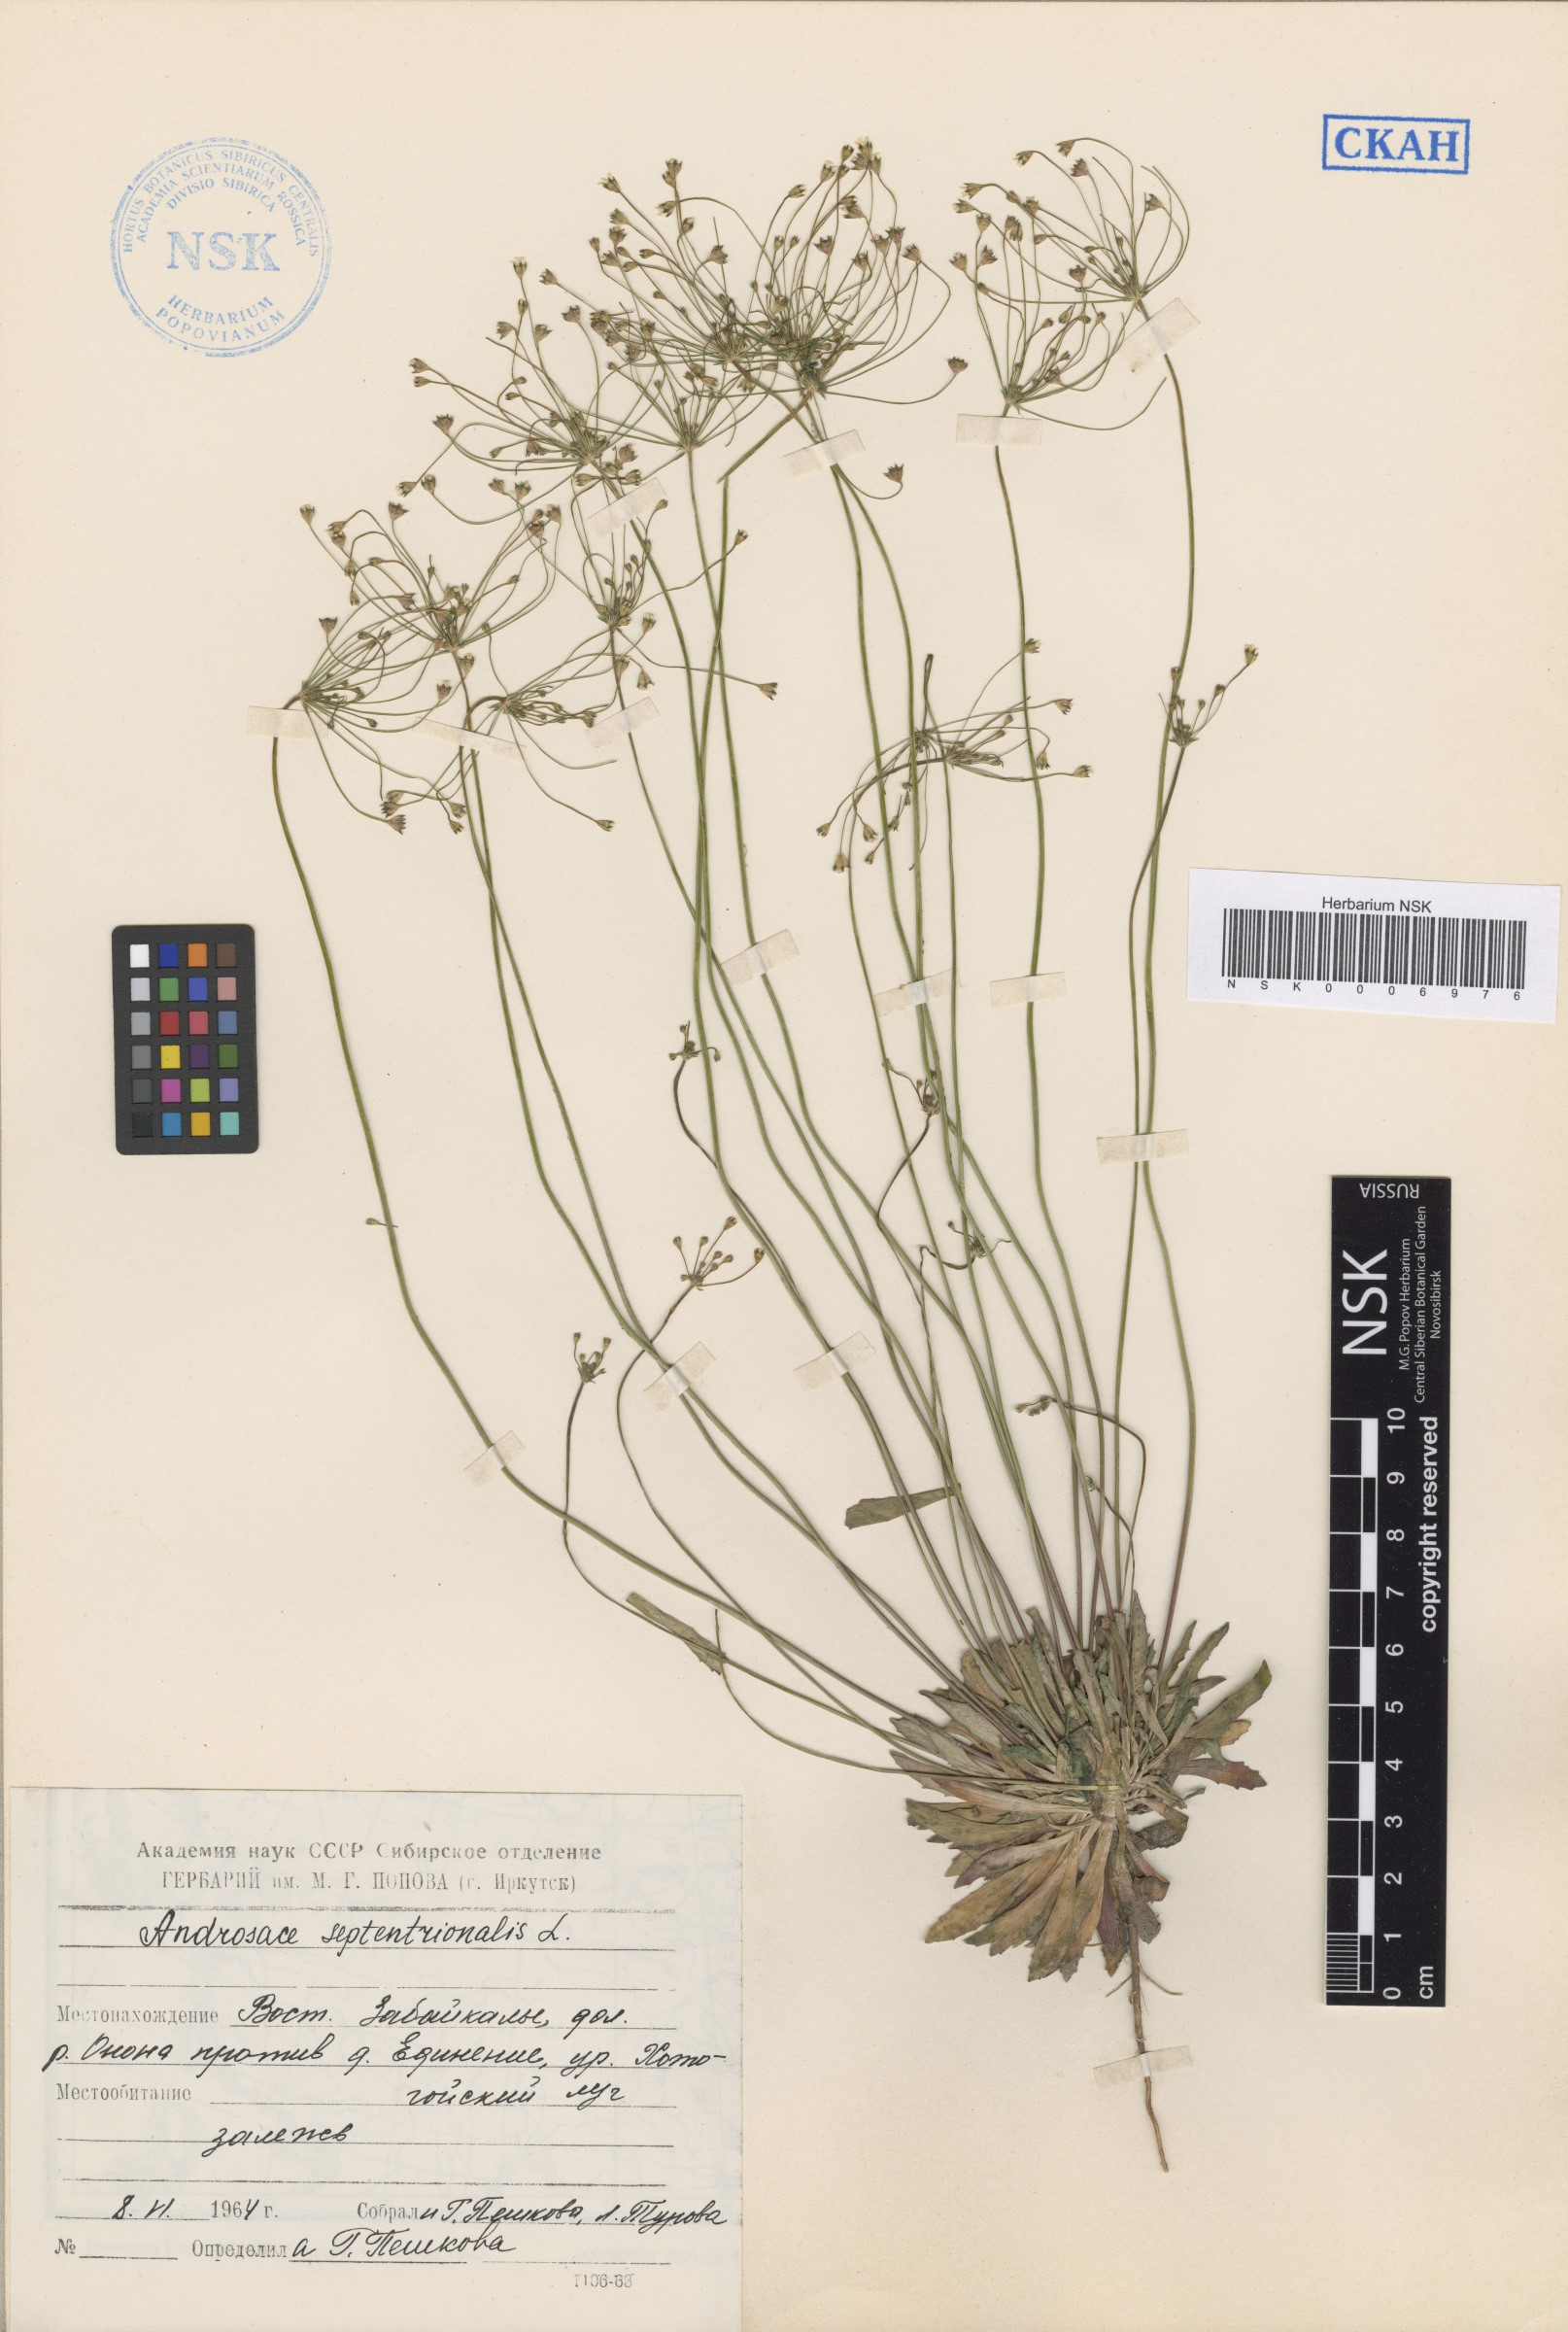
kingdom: Plantae
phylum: Tracheophyta
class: Magnoliopsida
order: Ericales
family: Primulaceae
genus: Androsace
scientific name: Androsace septentrionalis
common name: Hairy northern fairy-candelabra
